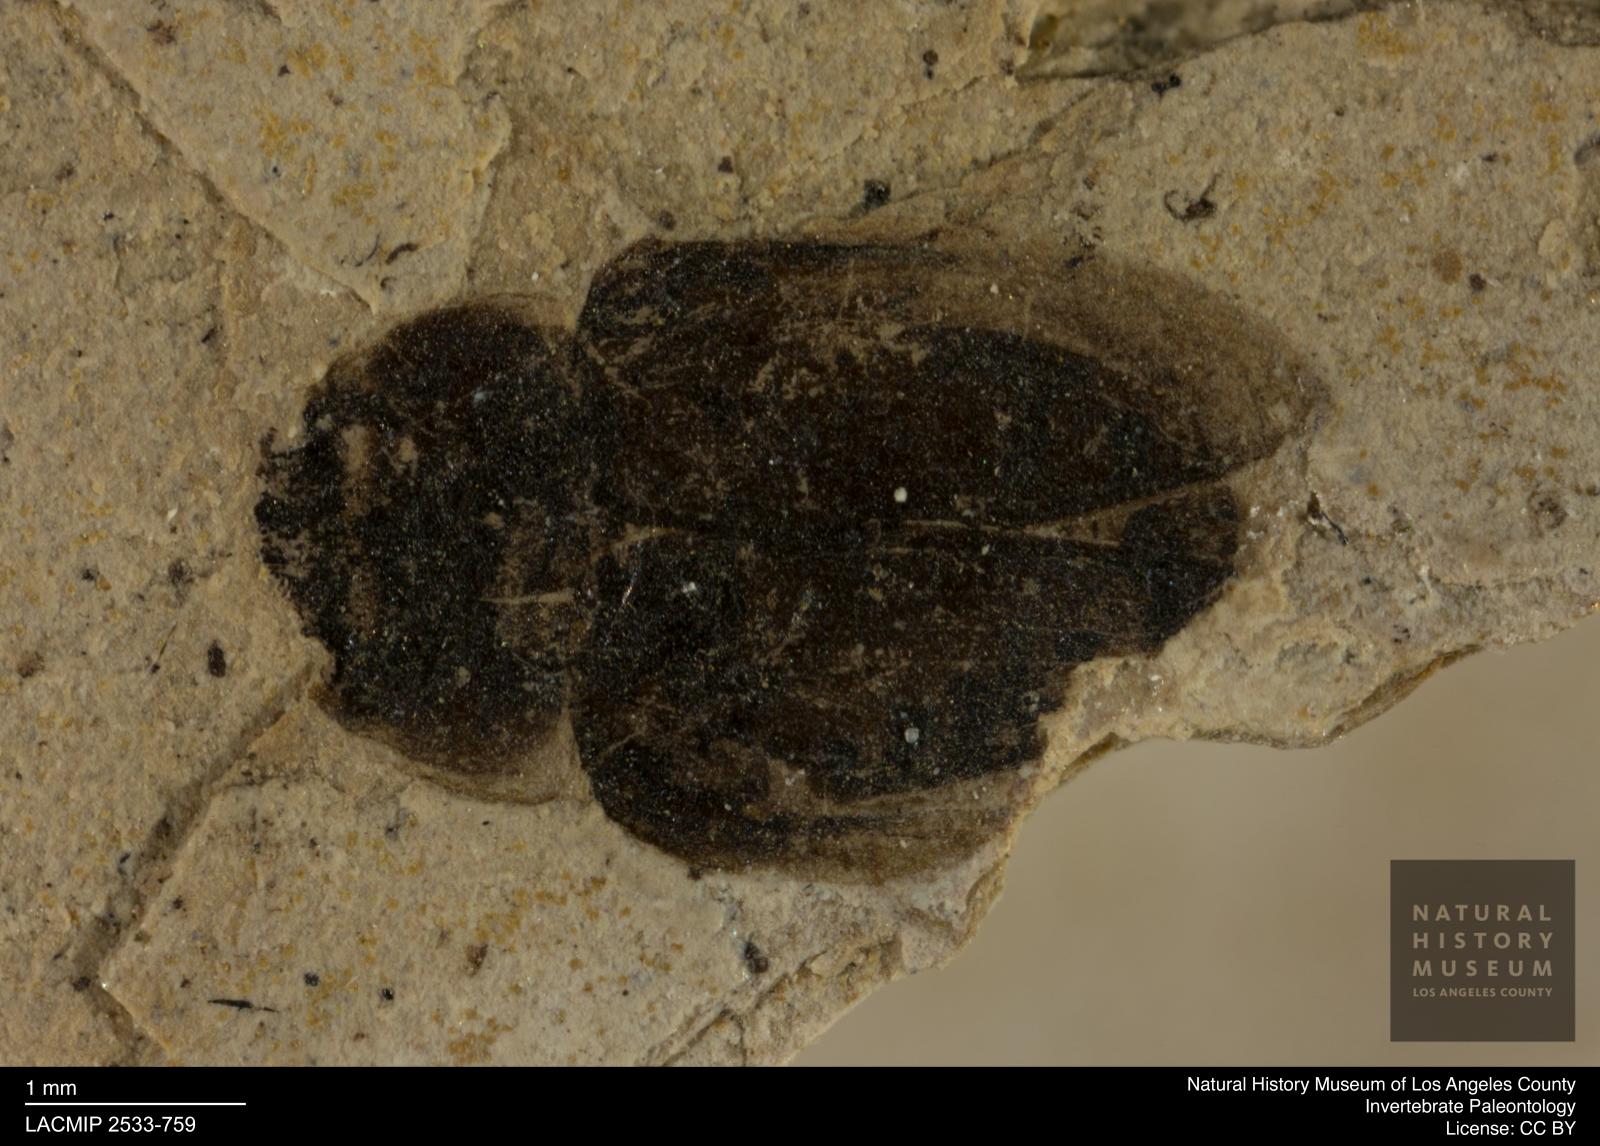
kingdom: Animalia
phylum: Arthropoda
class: Insecta
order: Coleoptera
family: Hydrophilidae
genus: Cymbiodyta
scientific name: Cymbiodyta austera
